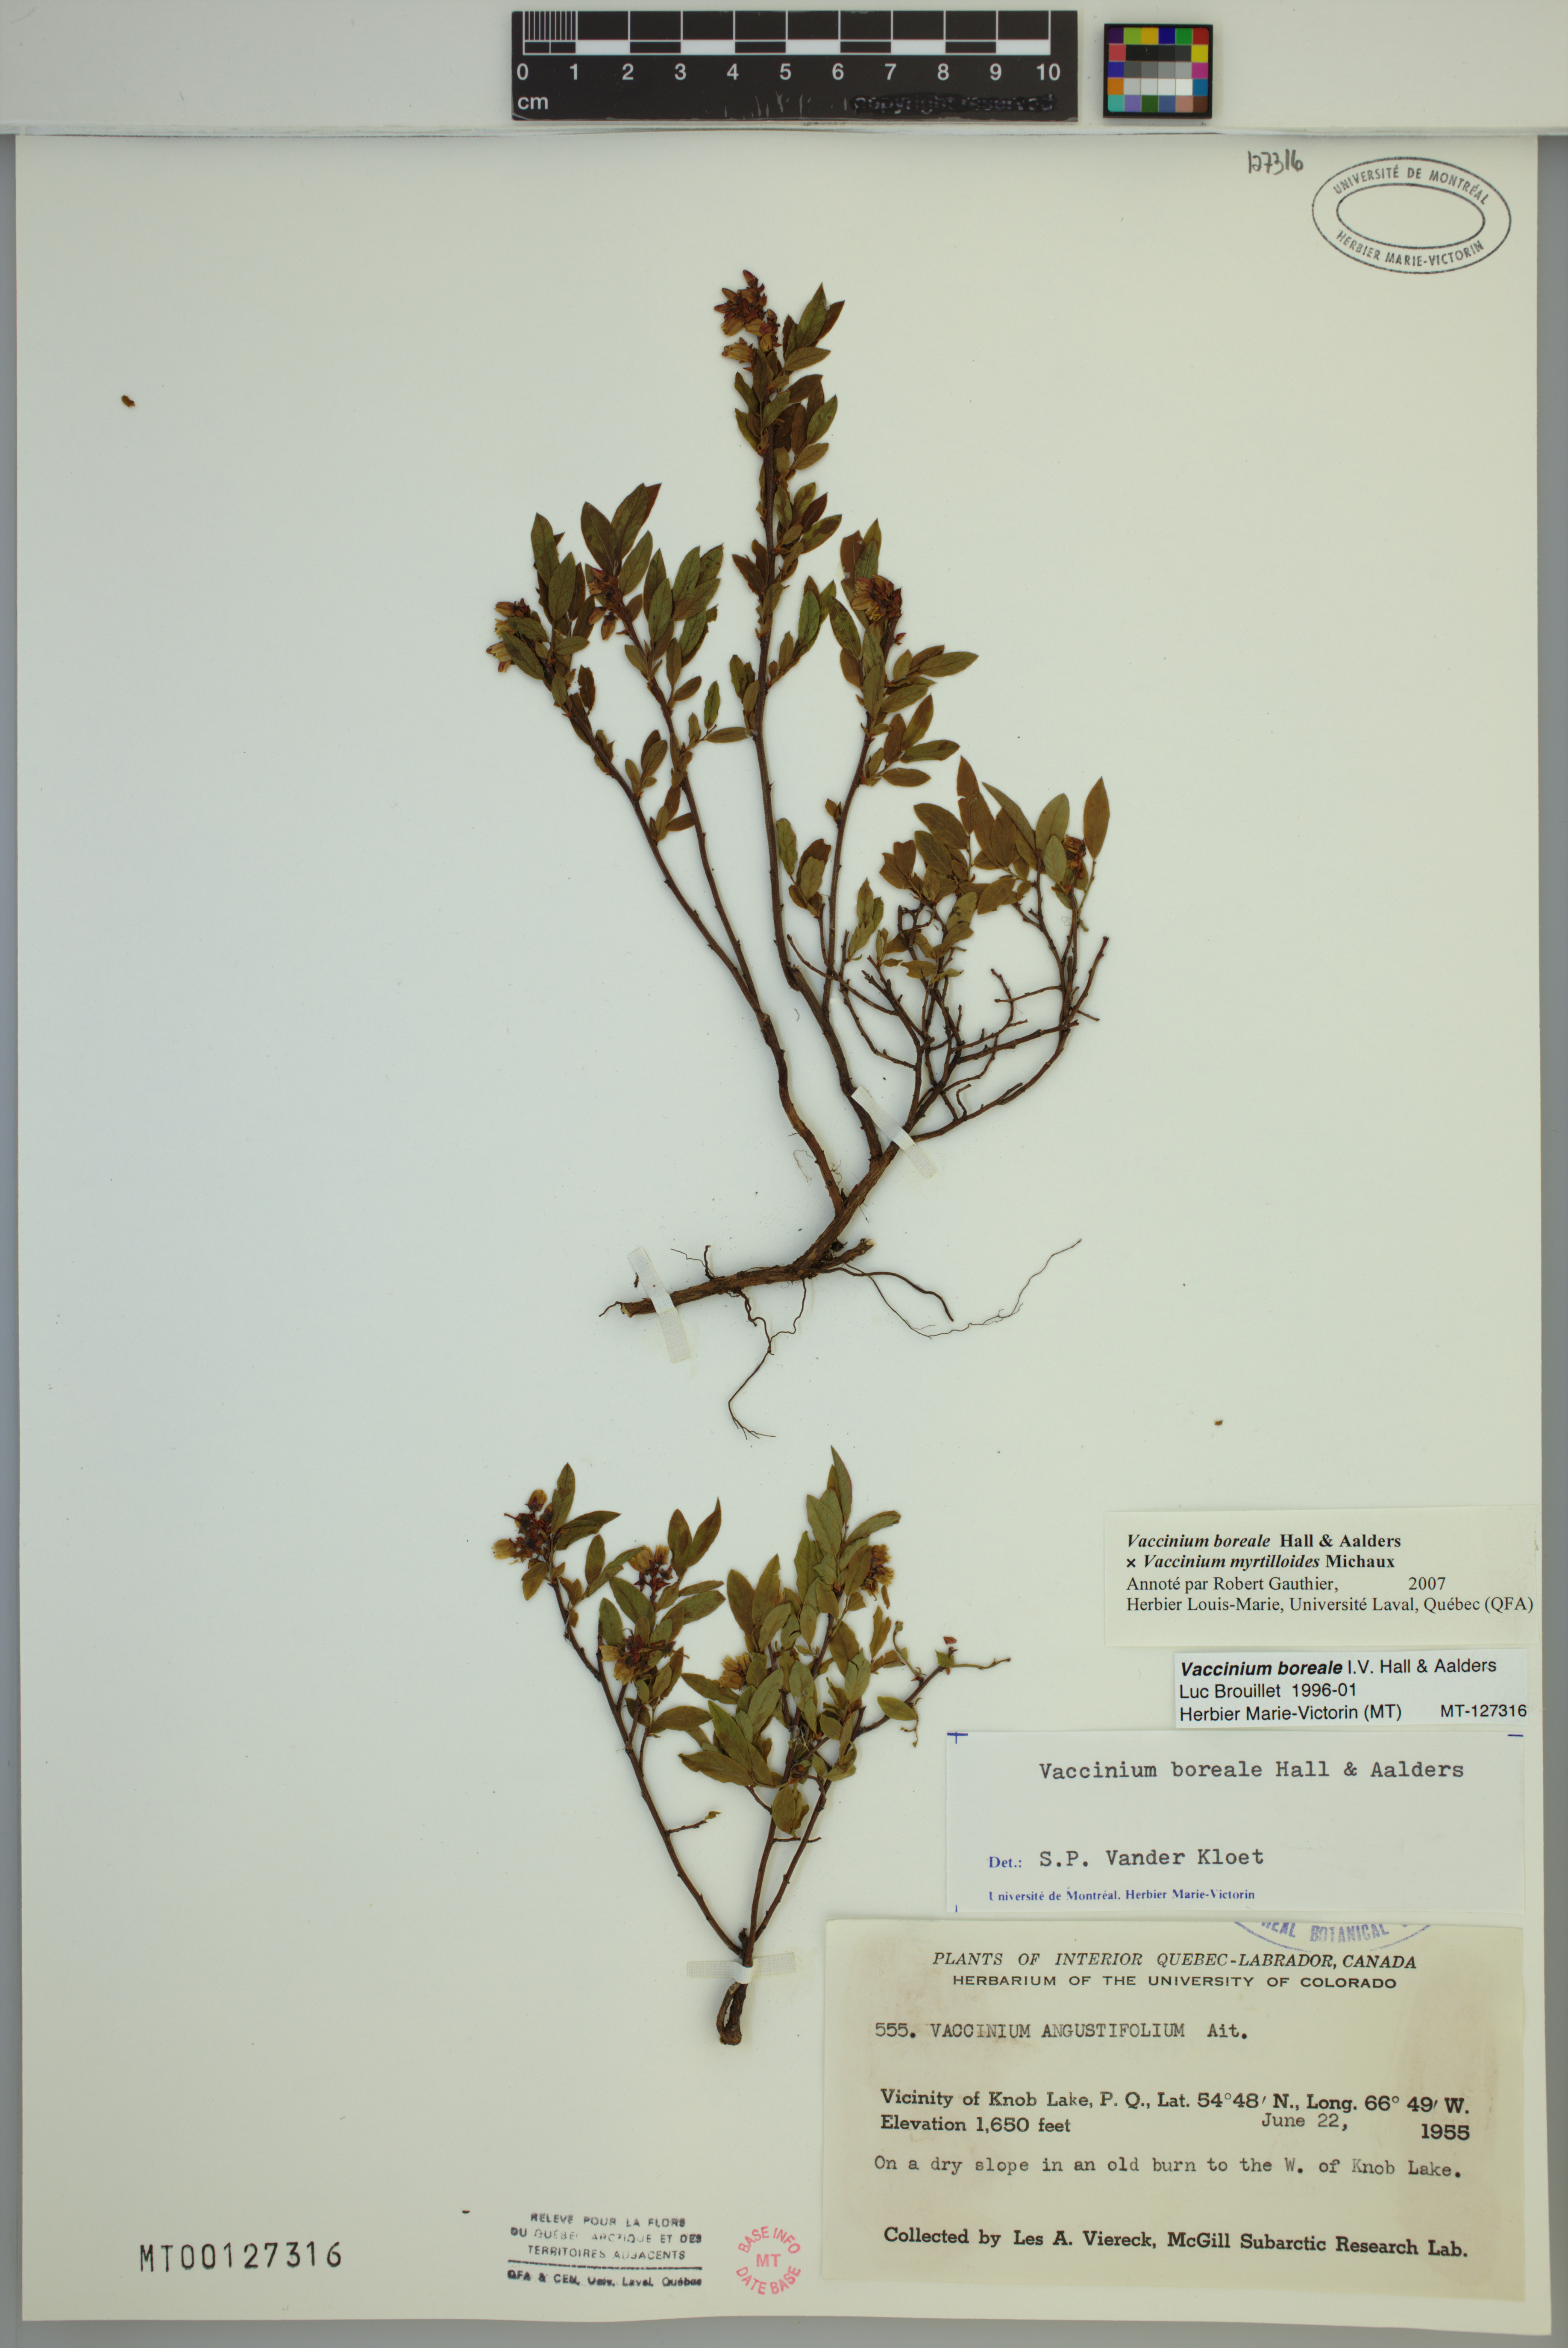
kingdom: Plantae
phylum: Tracheophyta
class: Magnoliopsida
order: Ericales
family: Ericaceae
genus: Vaccinium
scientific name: Vaccinium boreale
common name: Northern blueberry
